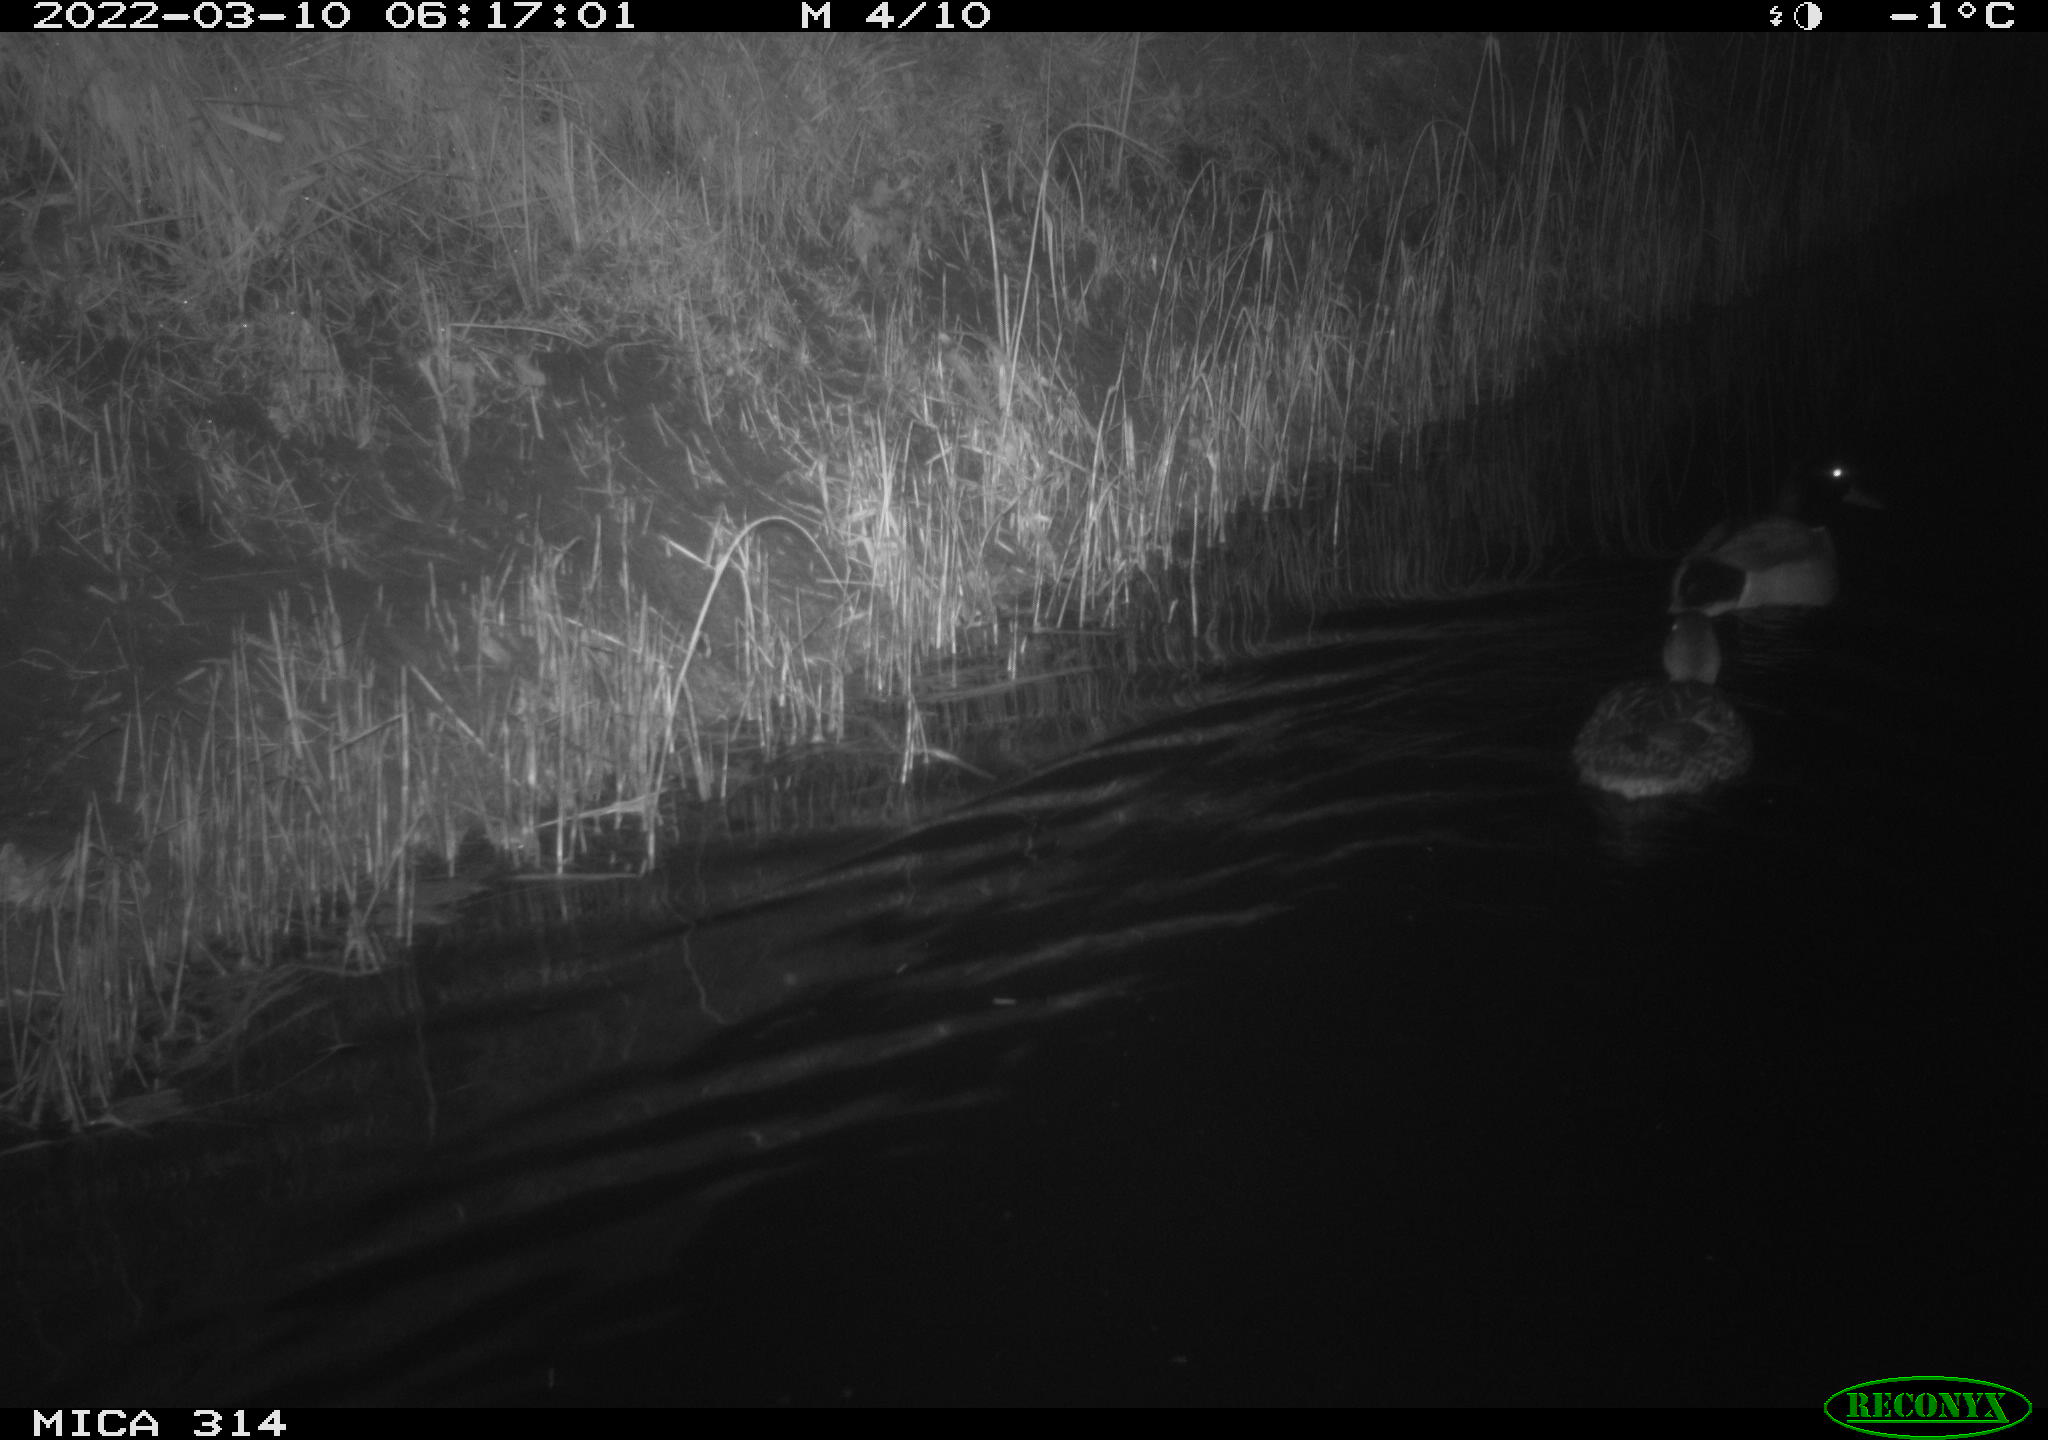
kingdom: Animalia
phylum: Chordata
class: Aves
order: Anseriformes
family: Anatidae
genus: Anas
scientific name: Anas platyrhynchos
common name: Mallard
